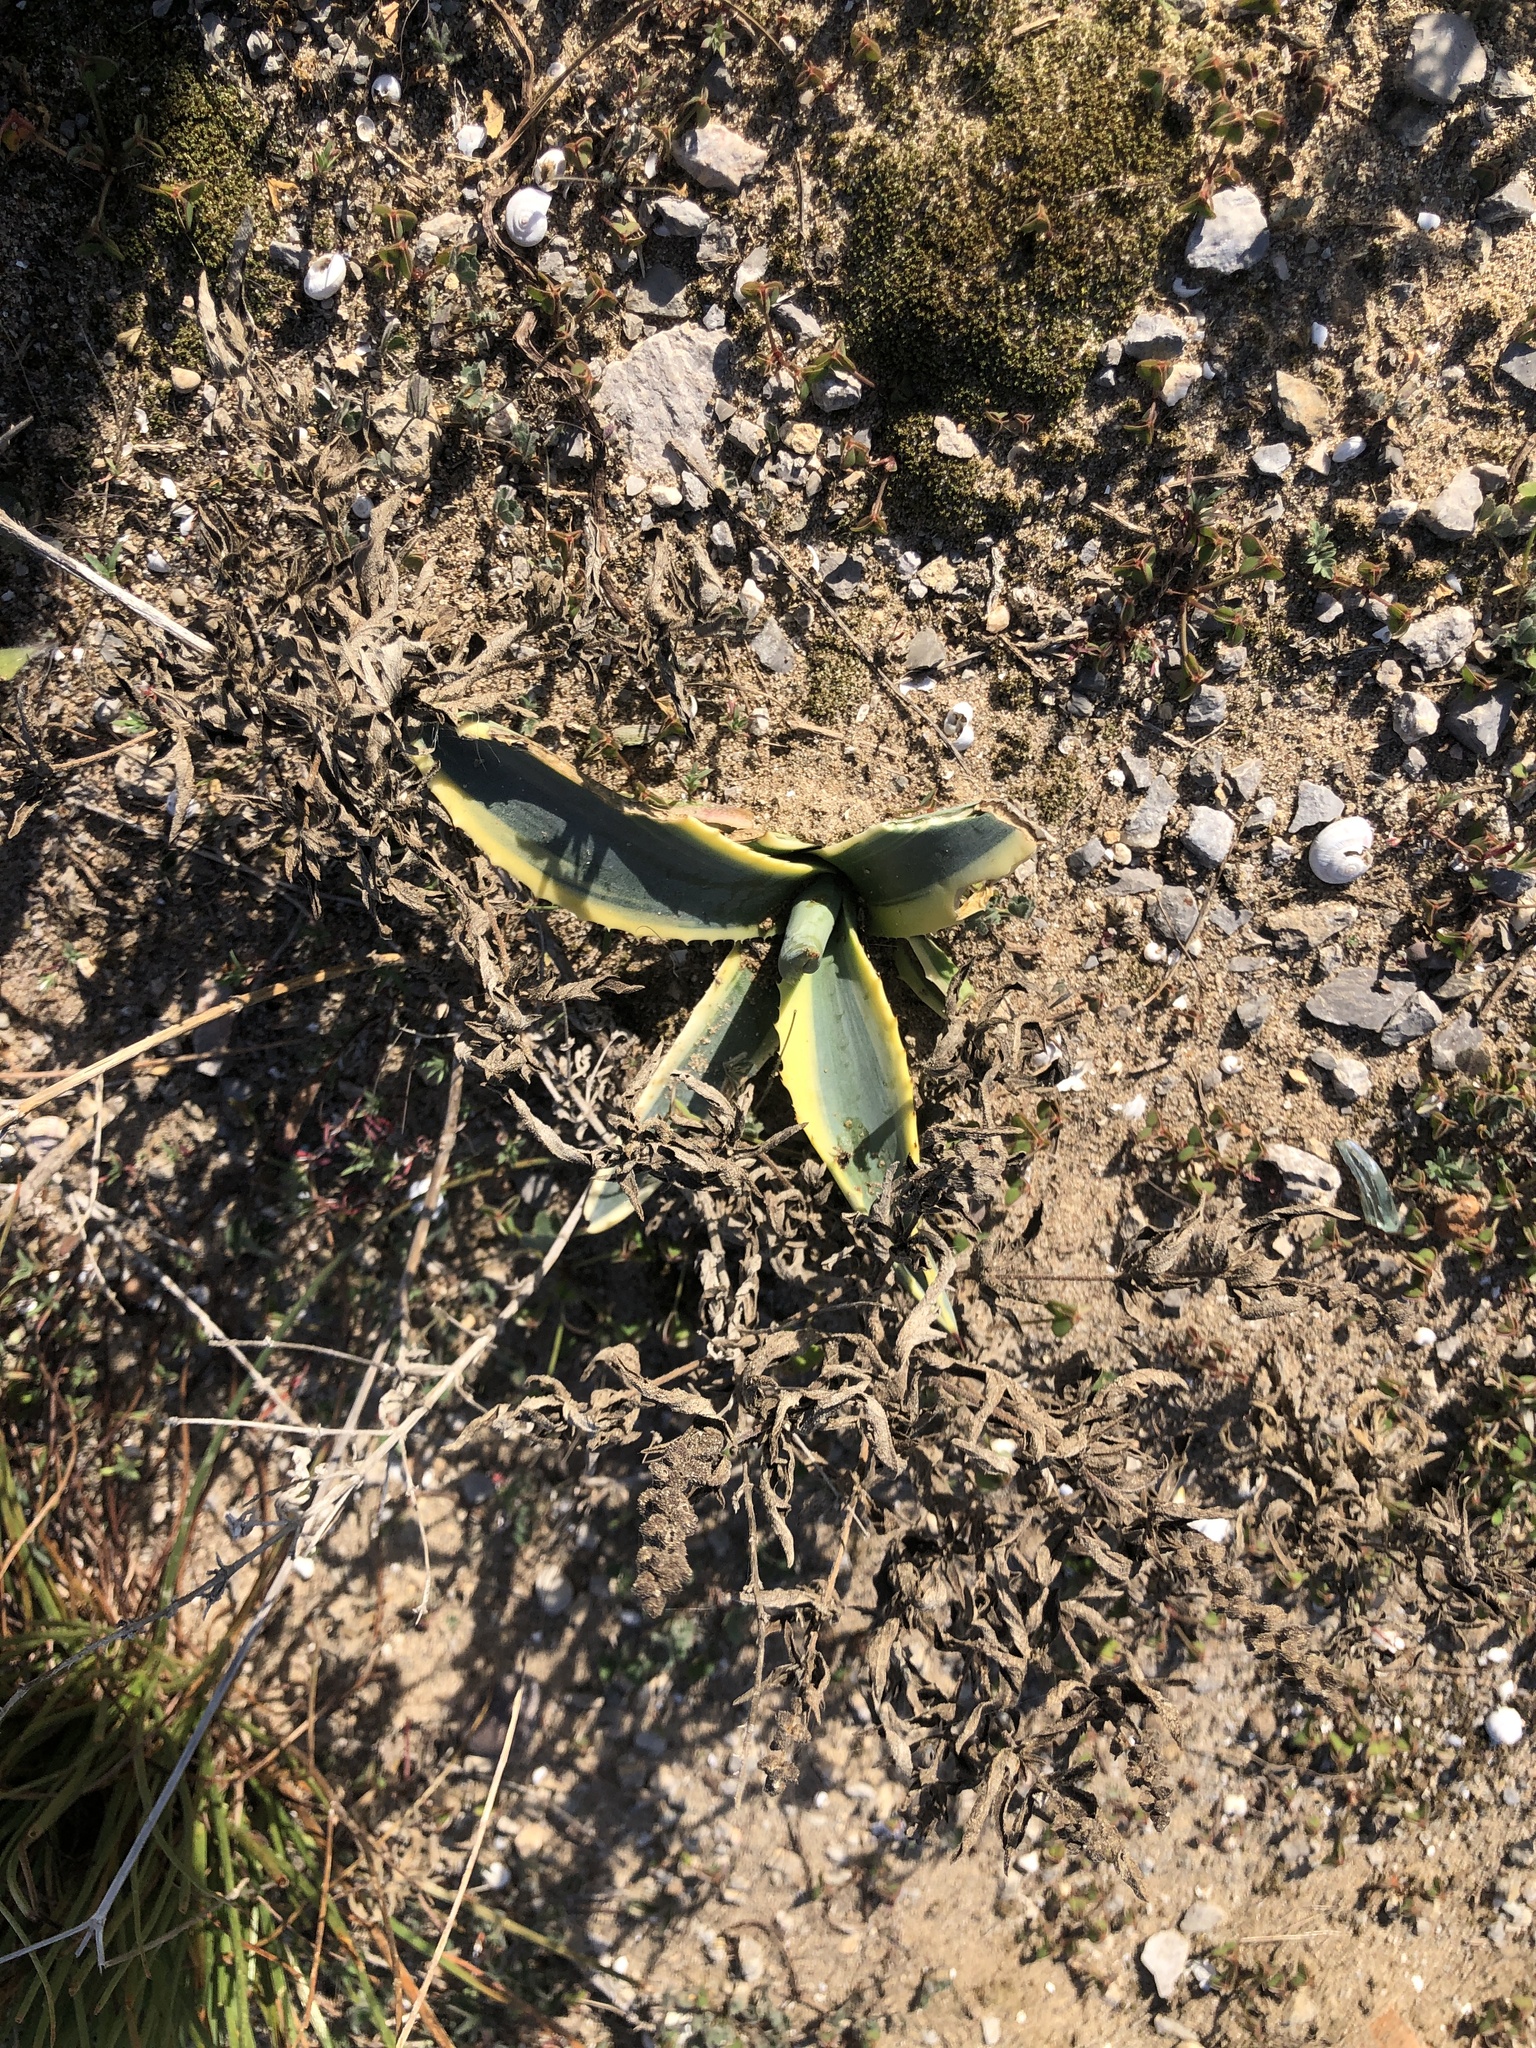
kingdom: Plantae
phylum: Tracheophyta
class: Liliopsida
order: Asparagales
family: Asparagaceae
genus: Agave
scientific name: Agave americana
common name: Centuryplant
